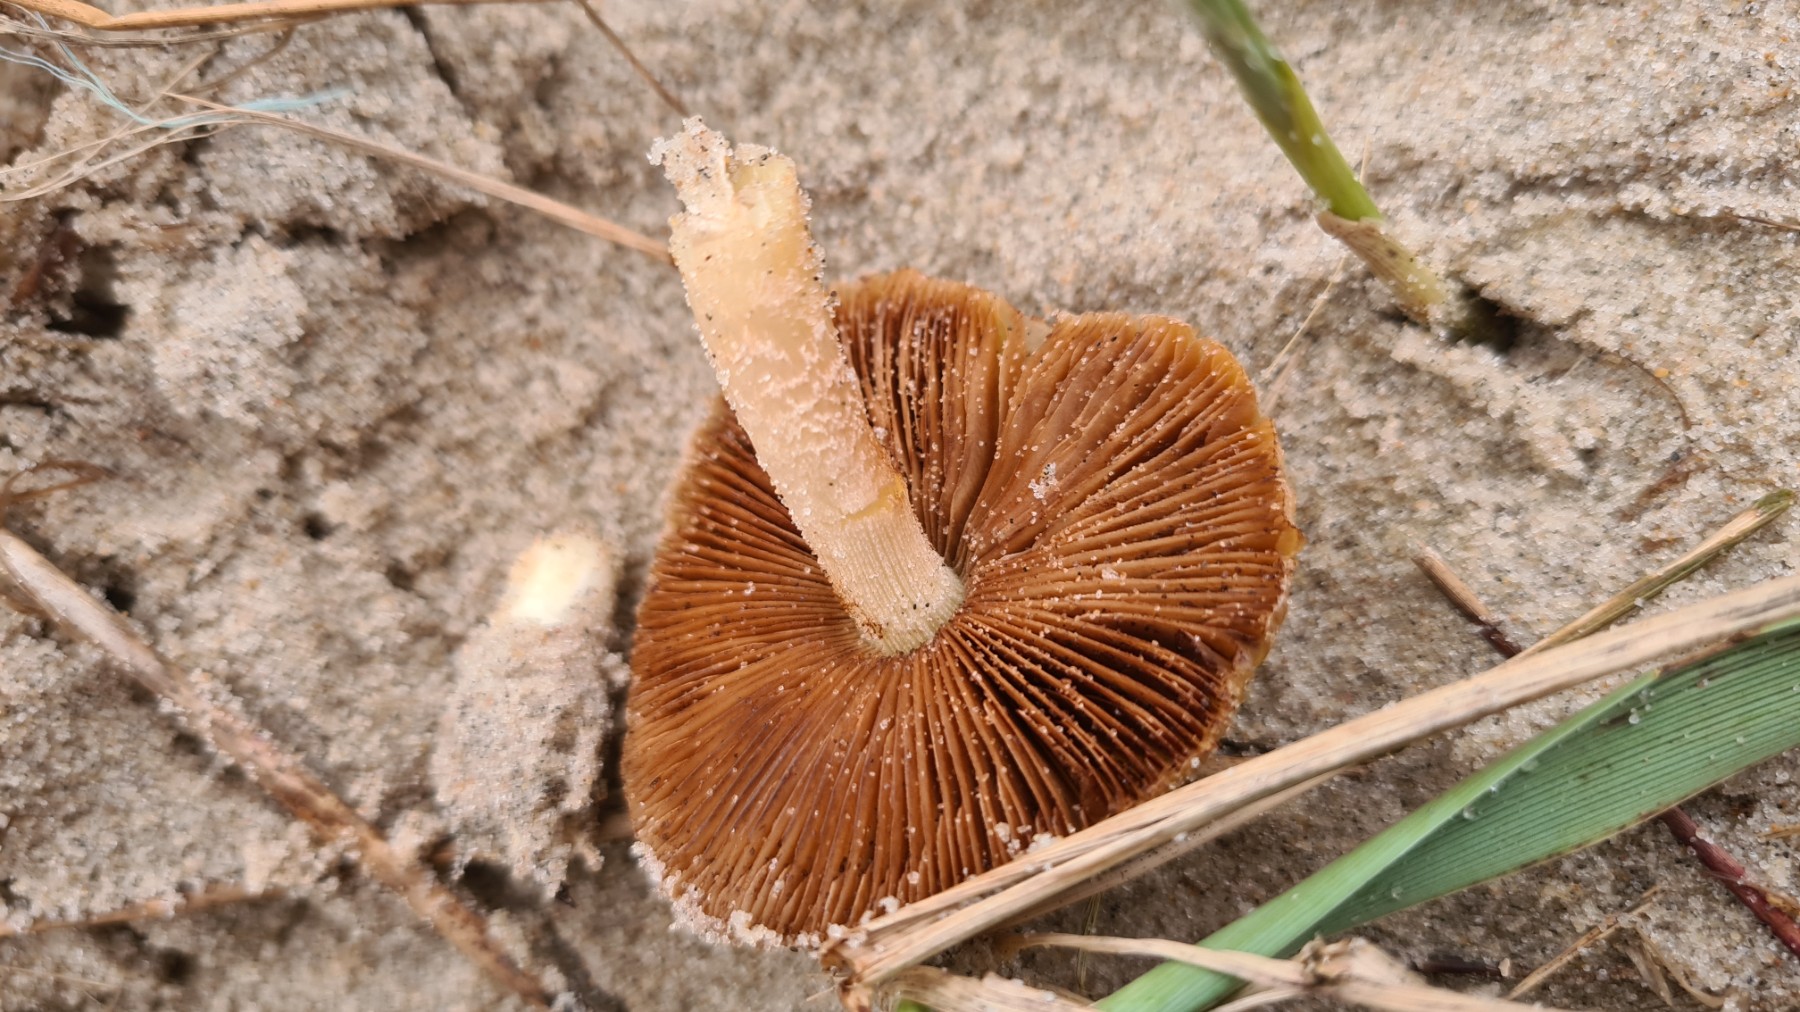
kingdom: Fungi
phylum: Basidiomycota
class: Agaricomycetes
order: Agaricales
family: Bolbitiaceae
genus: Bolbitius
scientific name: Bolbitius titubans
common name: almindelig gulhat
